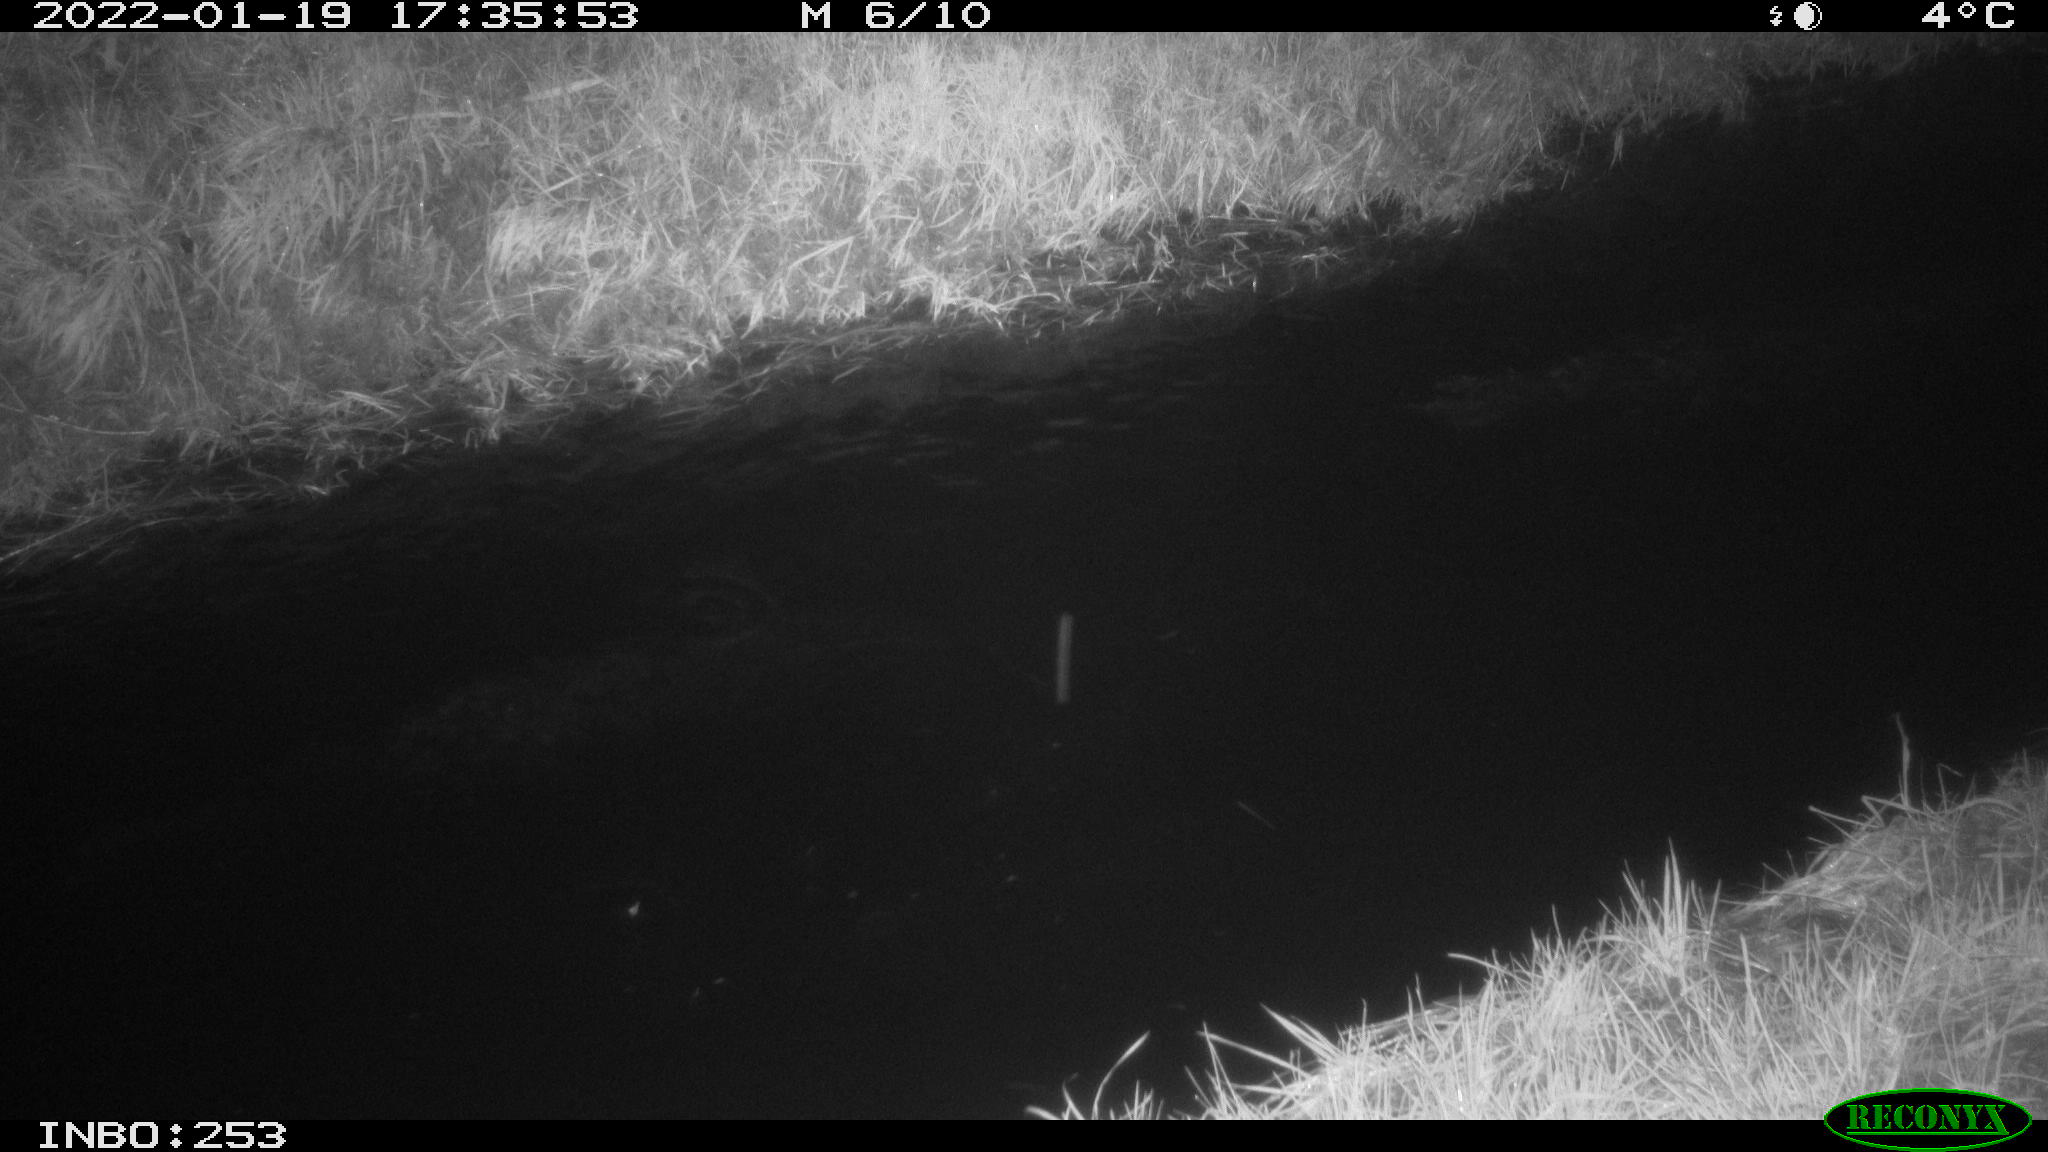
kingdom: Animalia
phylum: Chordata
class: Aves
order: Anseriformes
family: Anatidae
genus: Anas
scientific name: Anas
